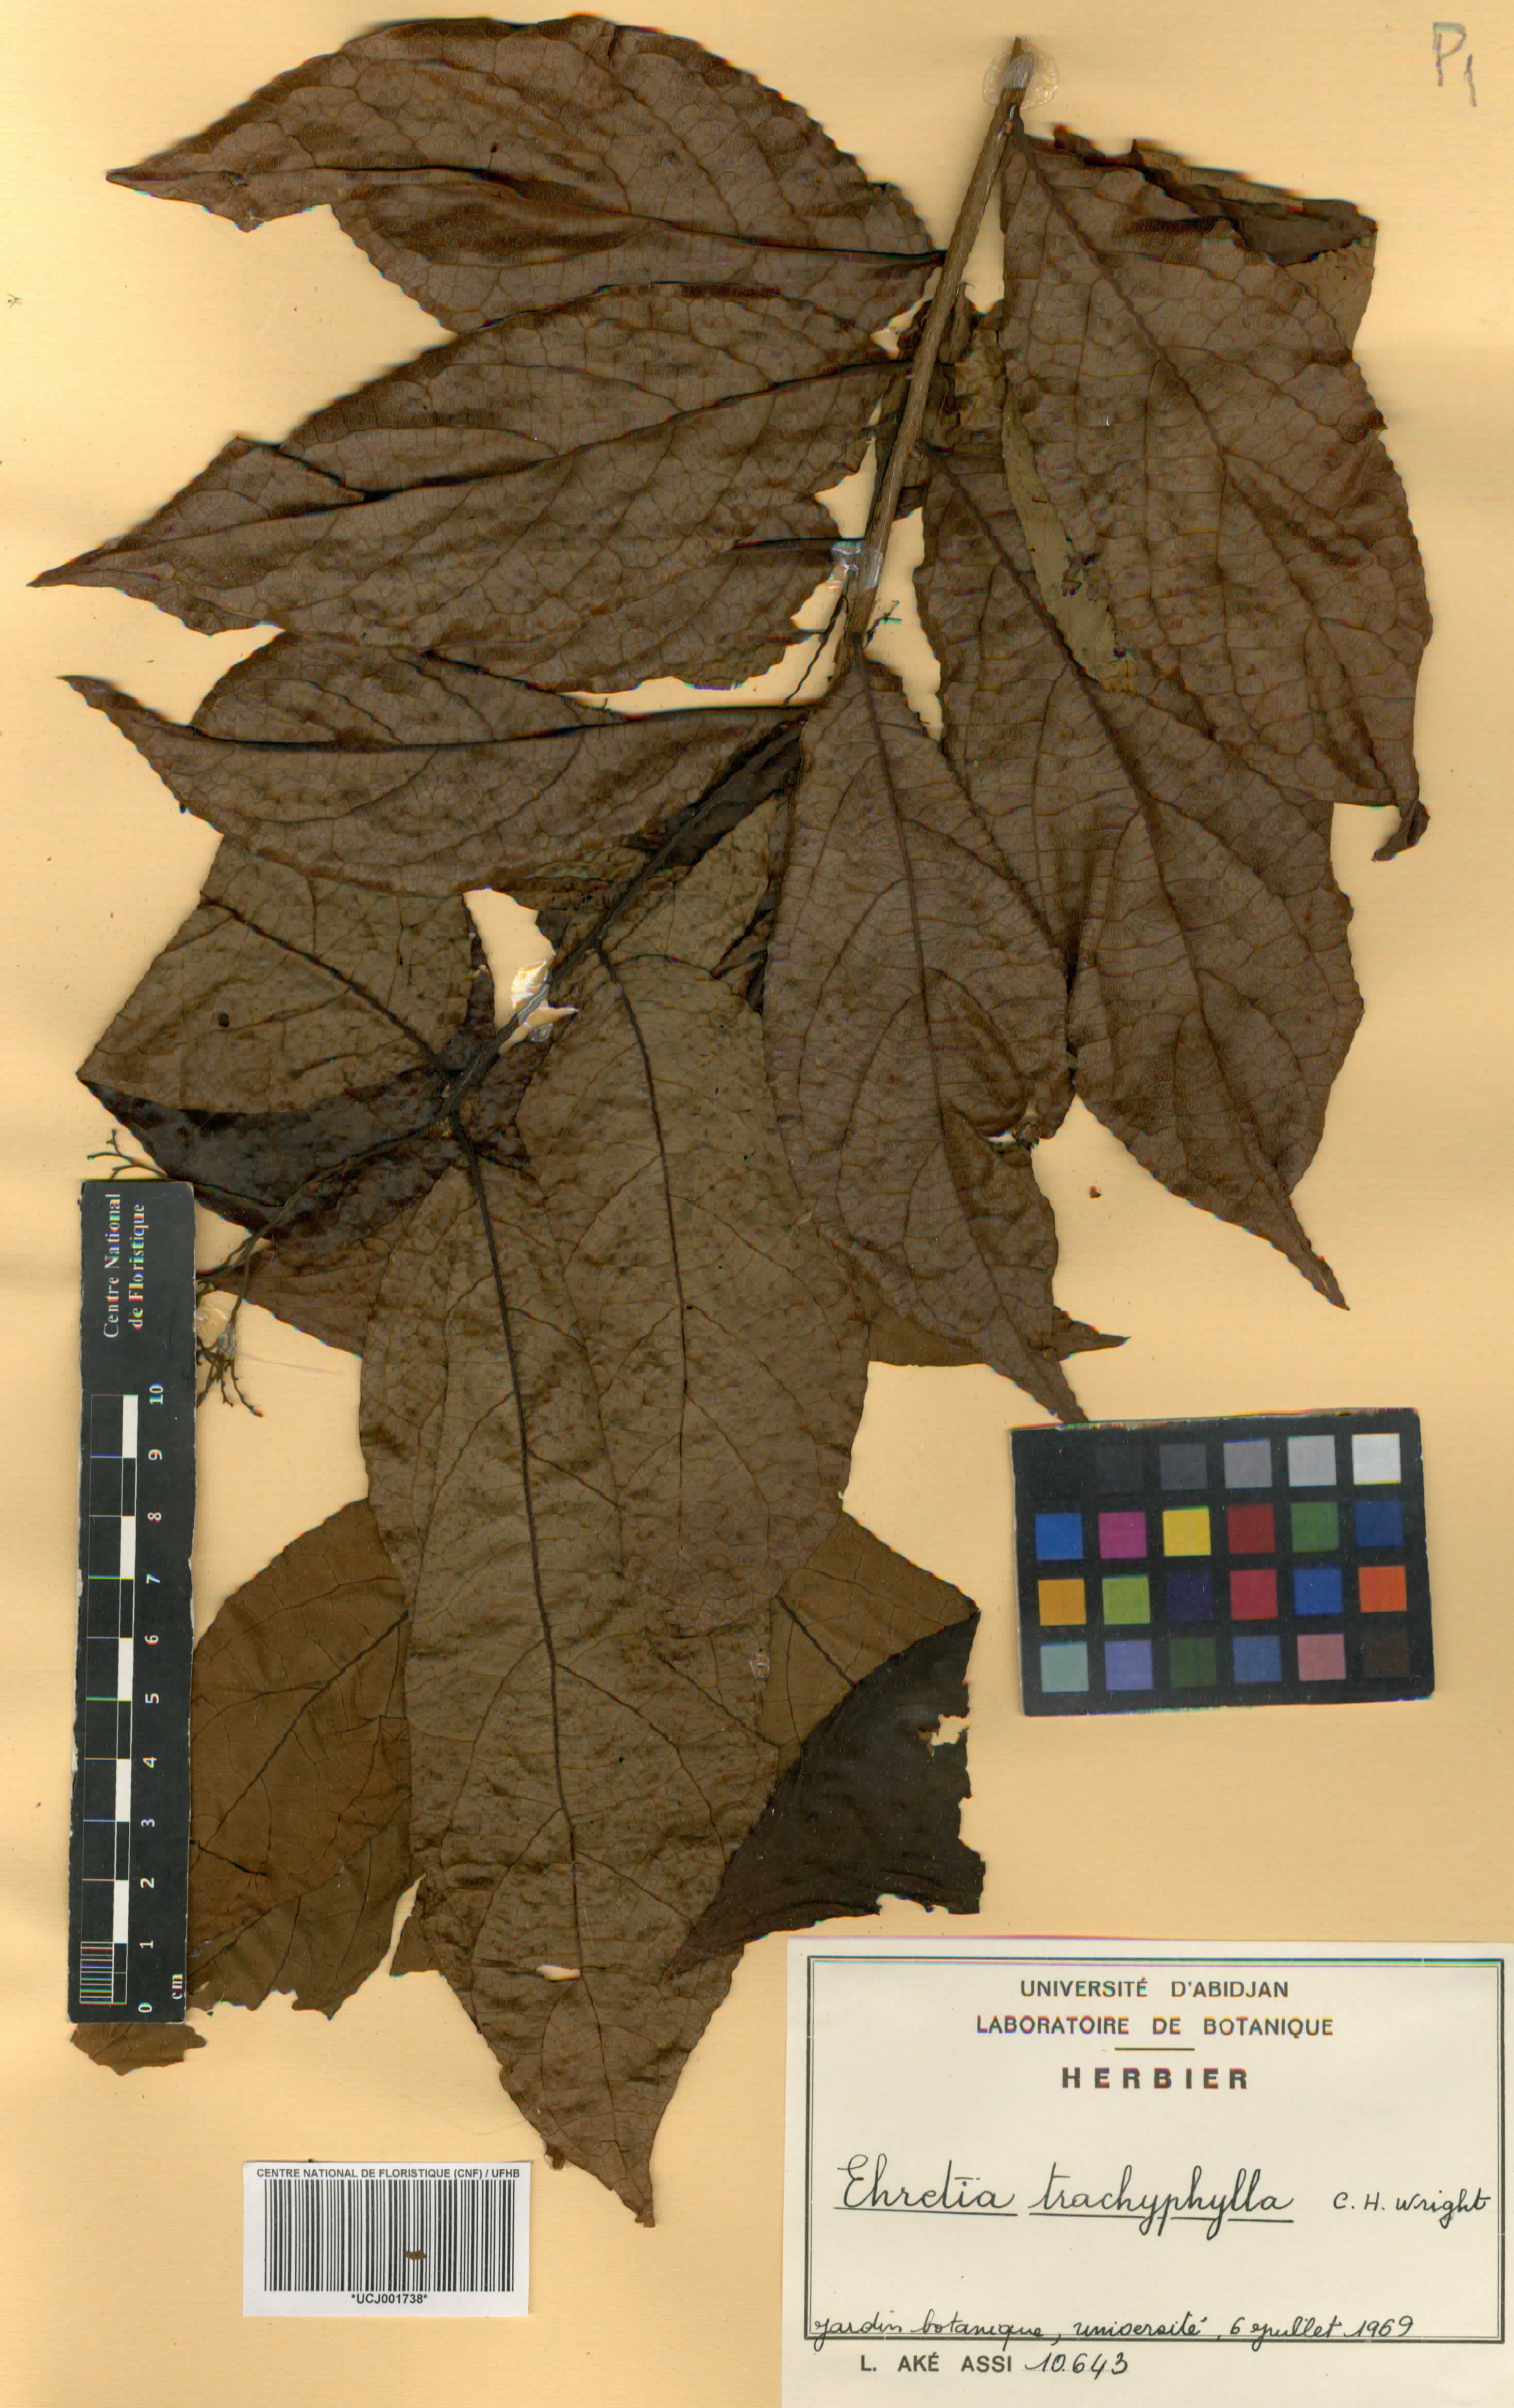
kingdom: Plantae
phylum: Tracheophyta
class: Magnoliopsida
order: Boraginales
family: Ehretiaceae
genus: Ehretia
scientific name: Ehretia trachyphylla
